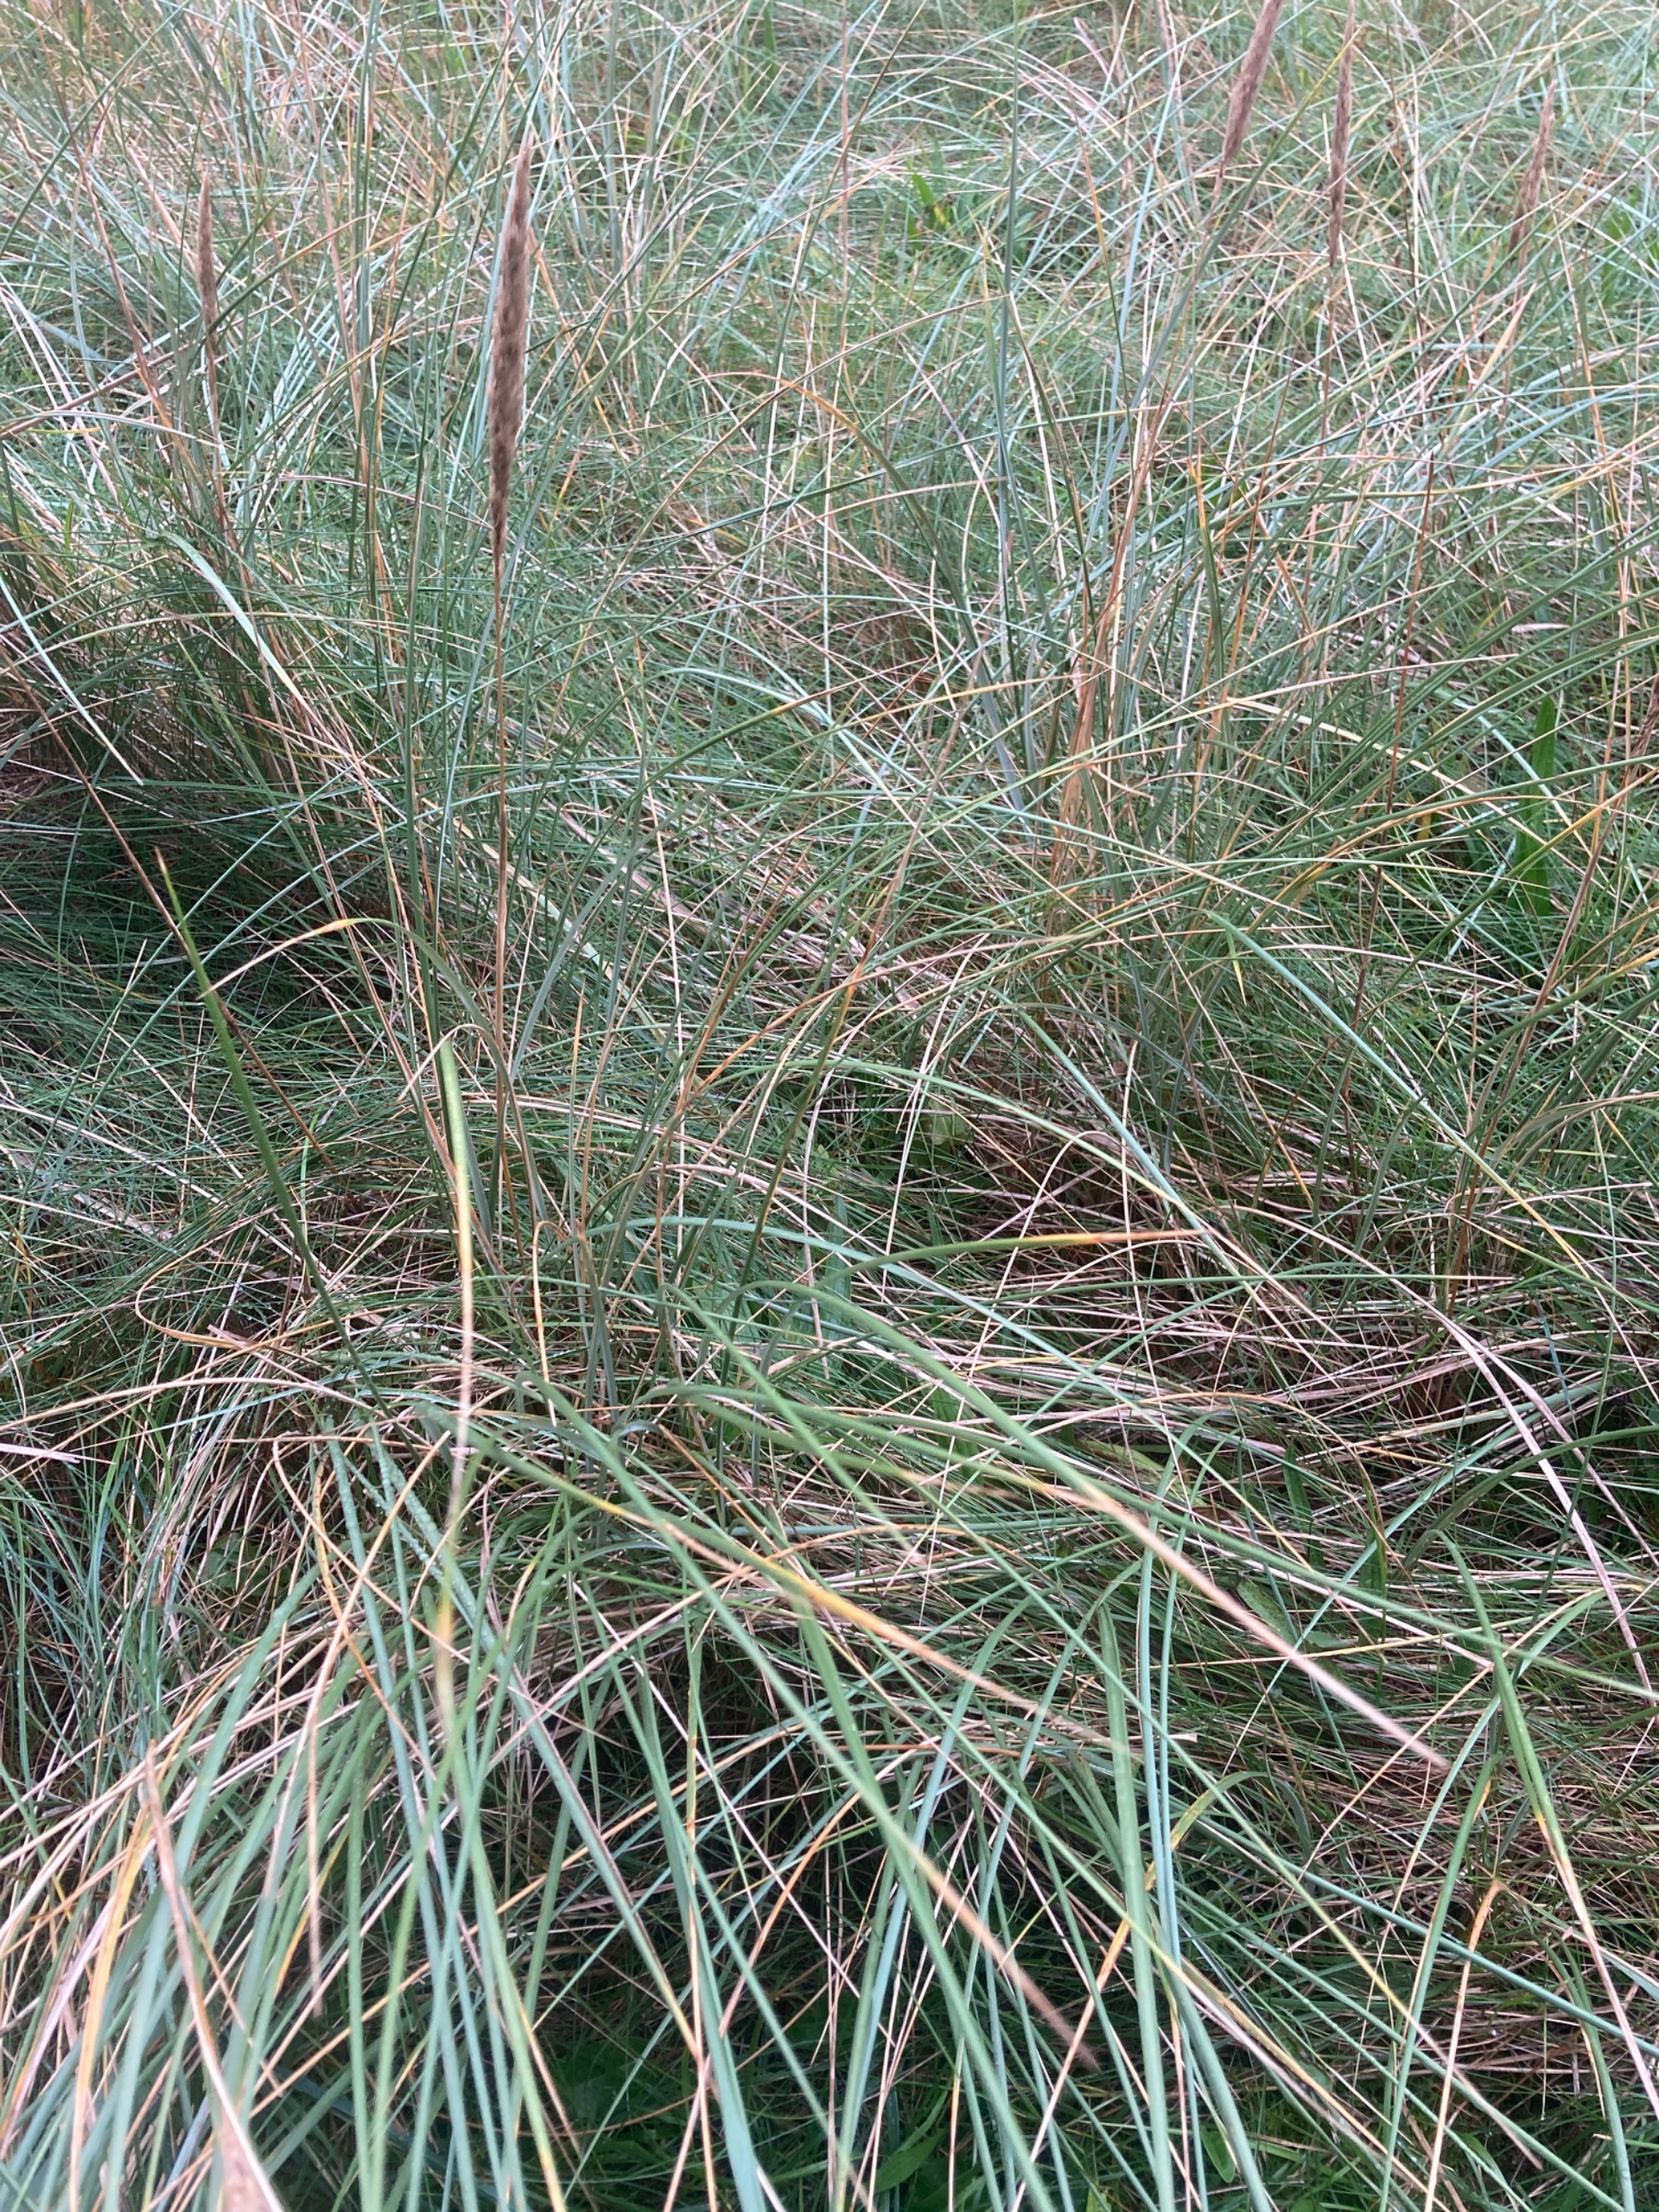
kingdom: Plantae
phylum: Tracheophyta
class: Liliopsida
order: Poales
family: Poaceae
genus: Calamagrostis
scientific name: Calamagrostis arenaria
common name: Sand-hjælme
